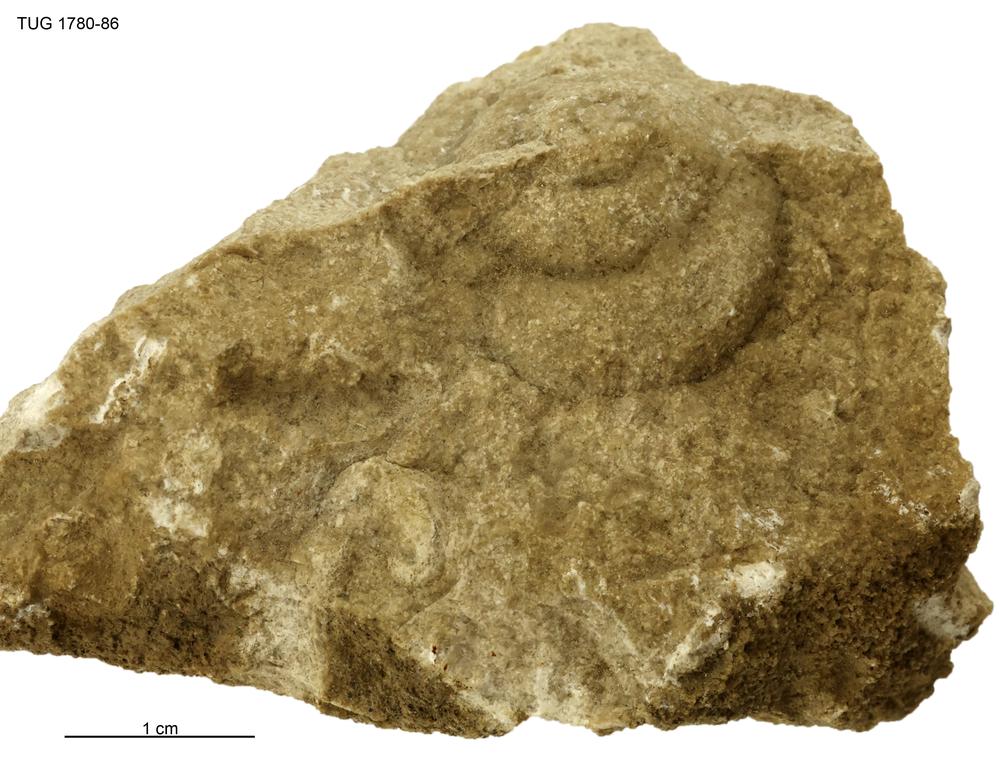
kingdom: Animalia
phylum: Mollusca
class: Gastropoda
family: Subulitidae
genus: Subulites
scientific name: Subulites amphora
